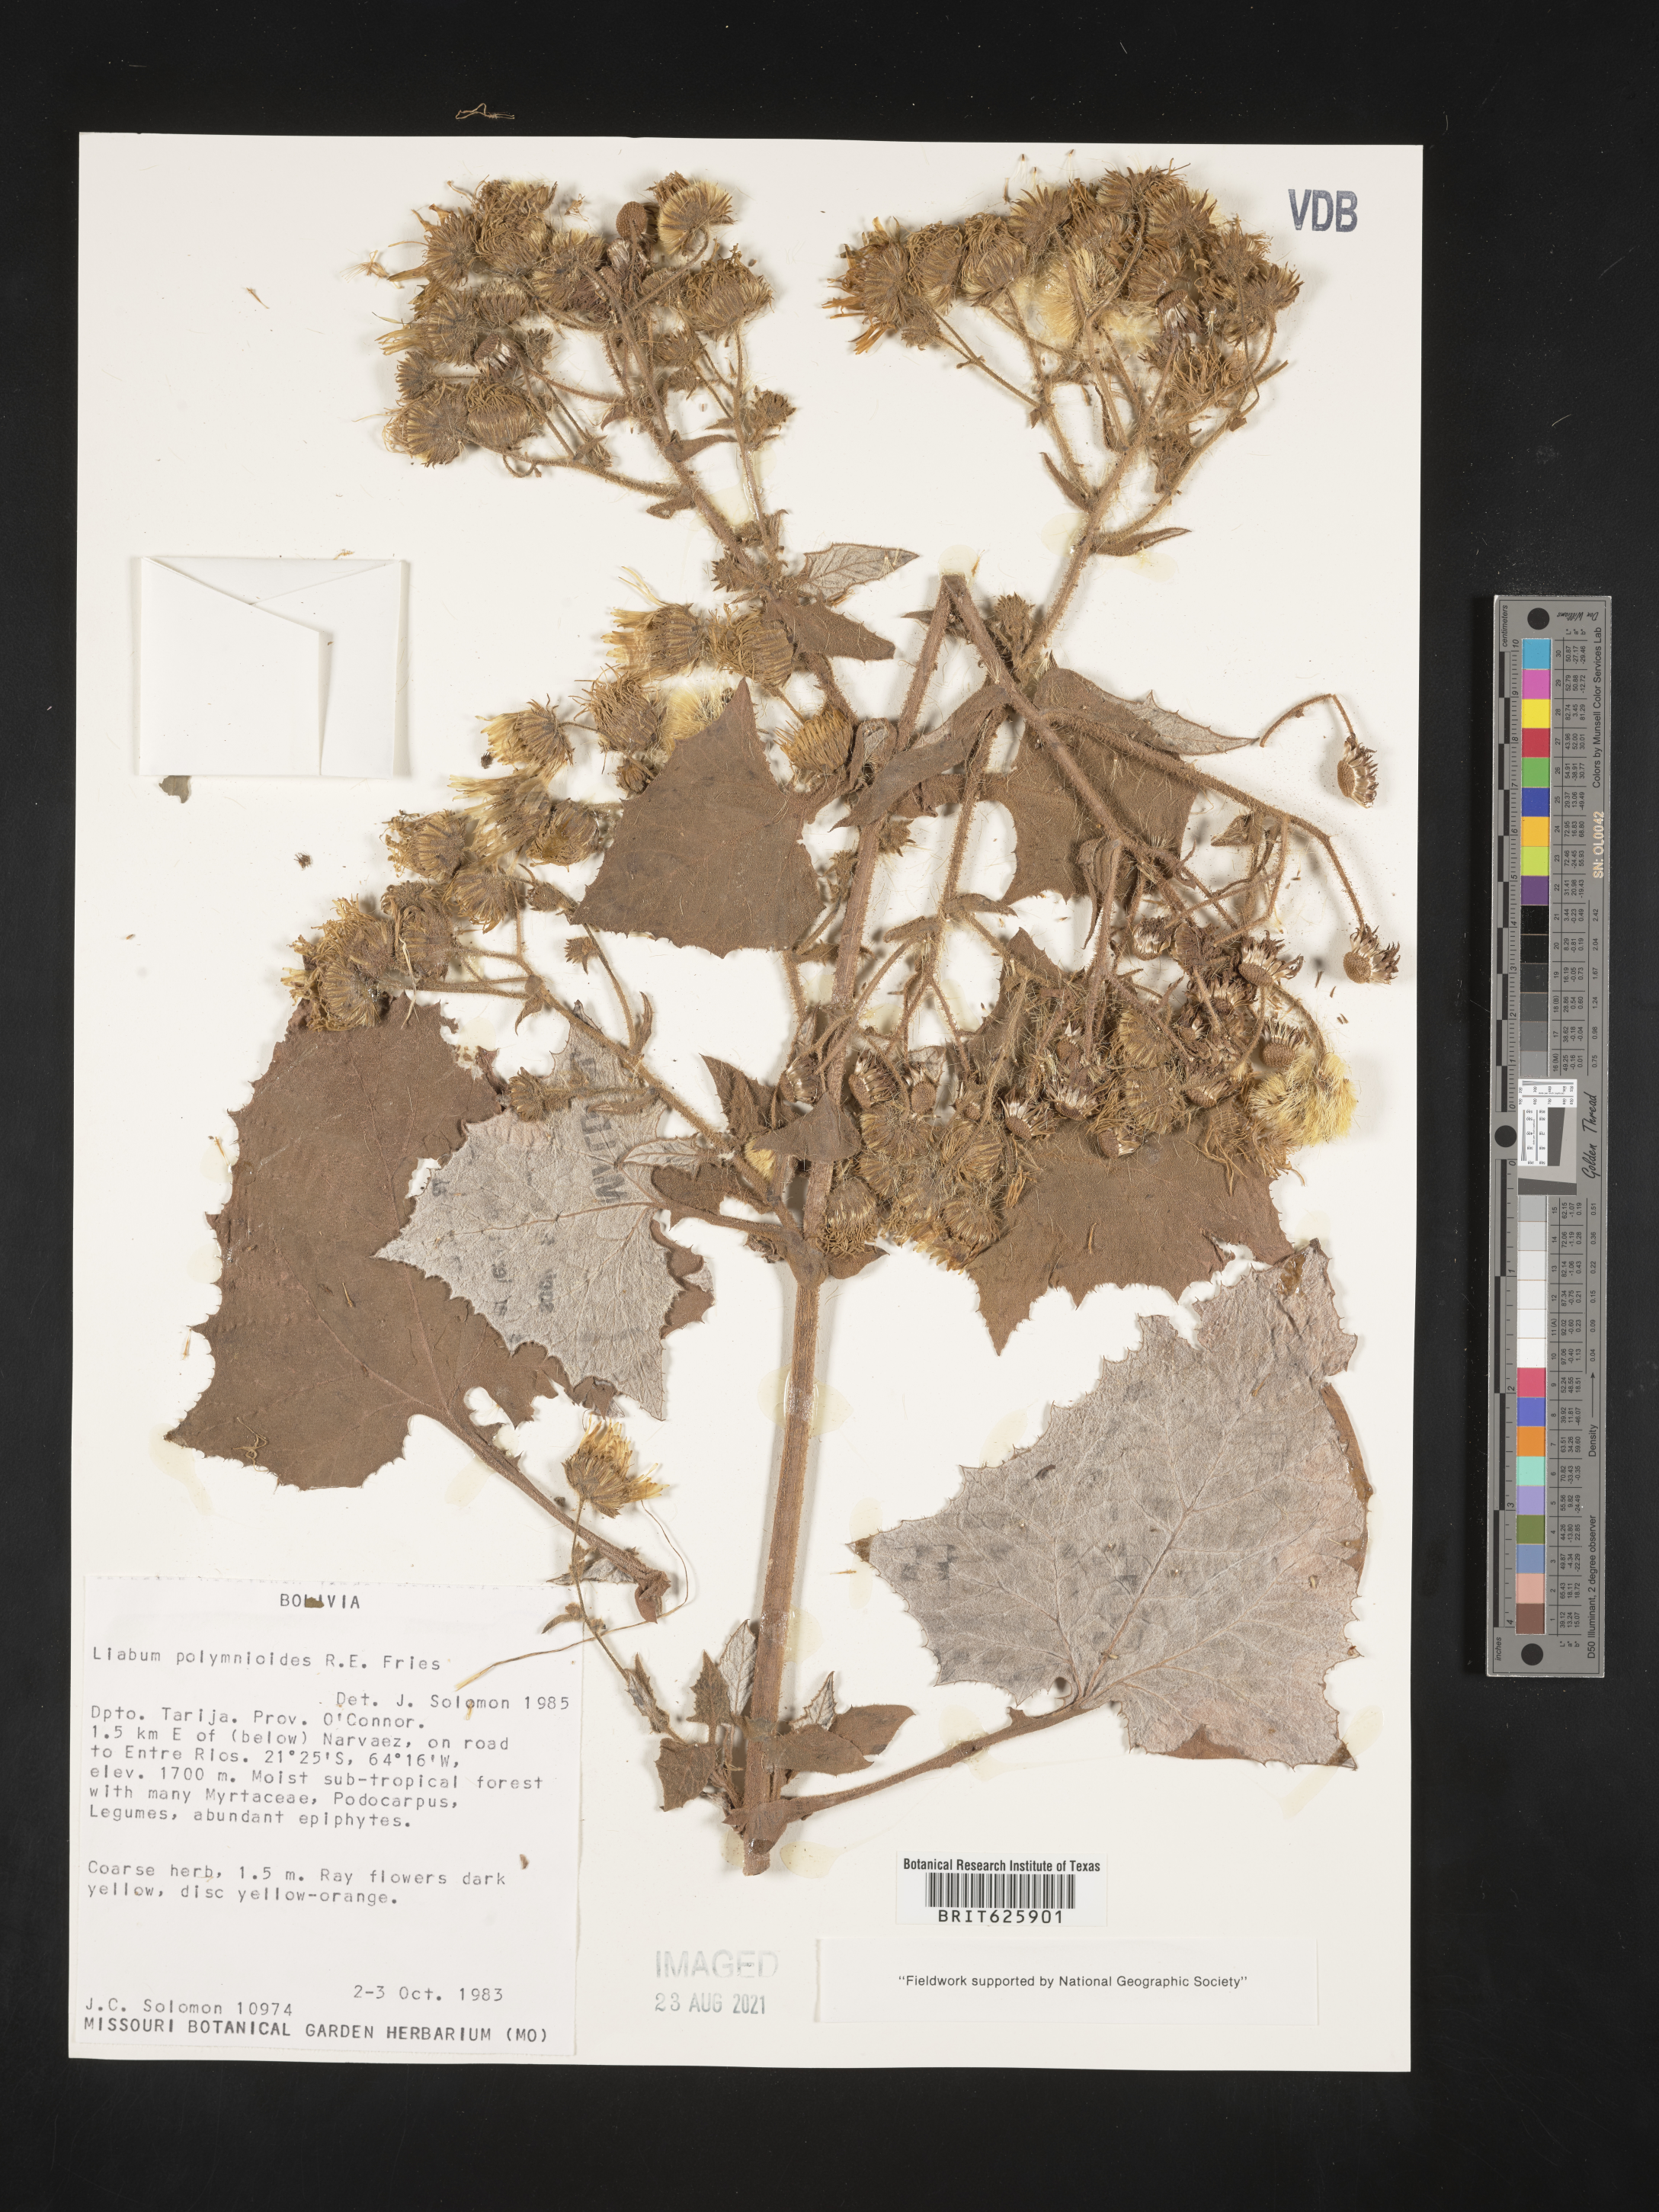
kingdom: Plantae
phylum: Tracheophyta
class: Magnoliopsida
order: Asterales
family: Asteraceae
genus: Microliabum
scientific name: Microliabum polymnioides
